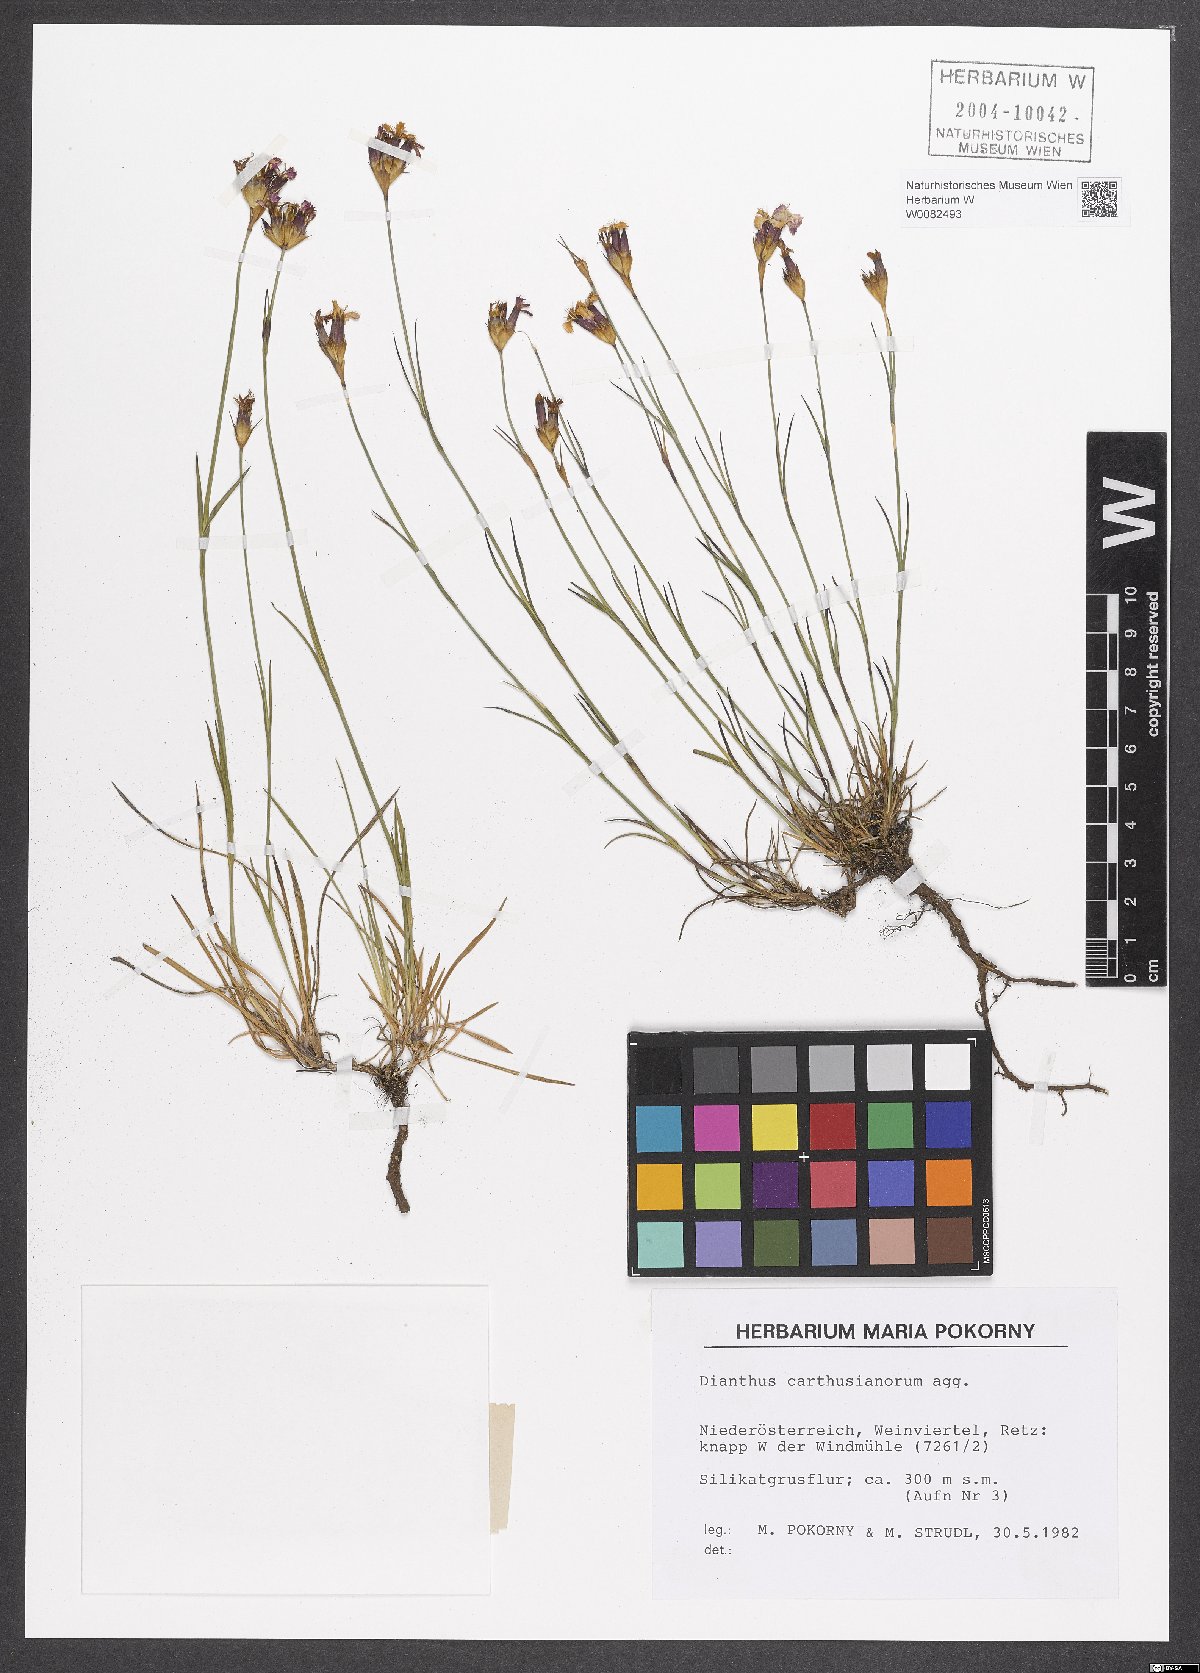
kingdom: Plantae
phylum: Tracheophyta
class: Magnoliopsida
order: Caryophyllales
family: Caryophyllaceae
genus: Dianthus
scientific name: Dianthus carthusianorum
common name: Carthusian pink
